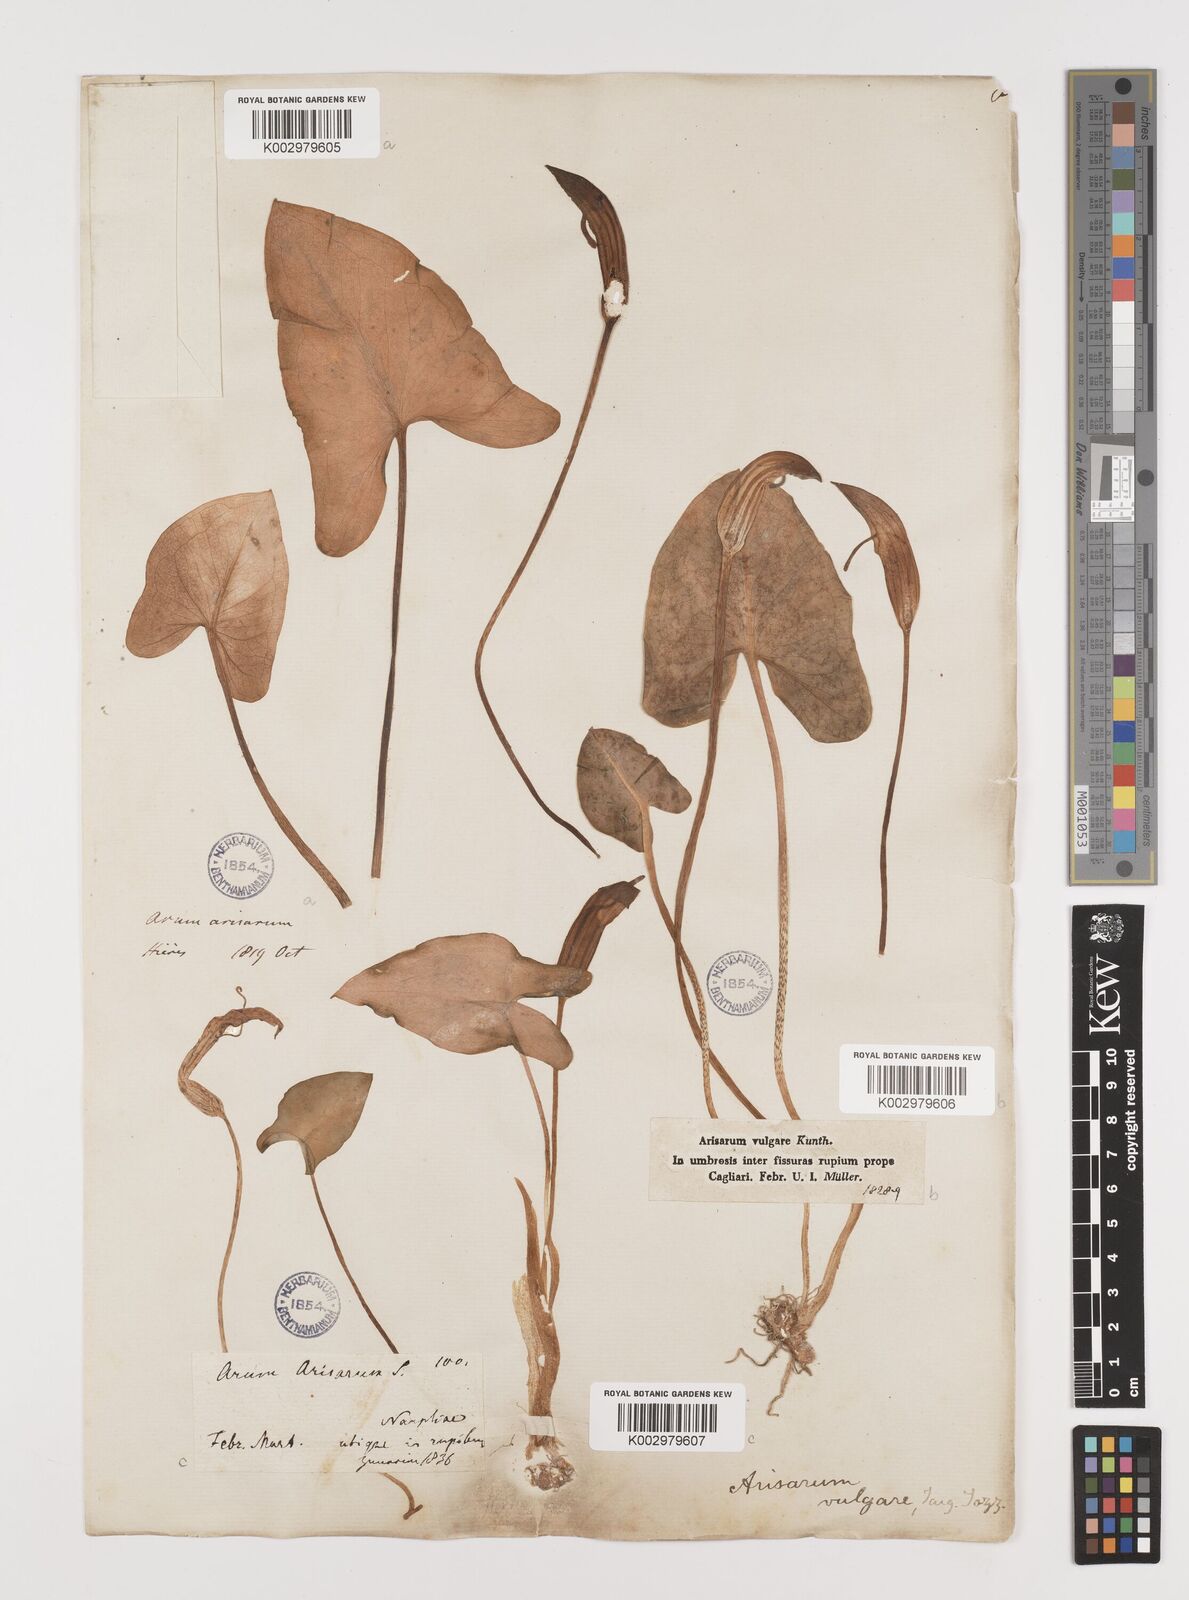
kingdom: Plantae
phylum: Tracheophyta
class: Liliopsida
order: Alismatales
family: Araceae
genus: Arisarum
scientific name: Arisarum vulgare
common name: Common arisarum
